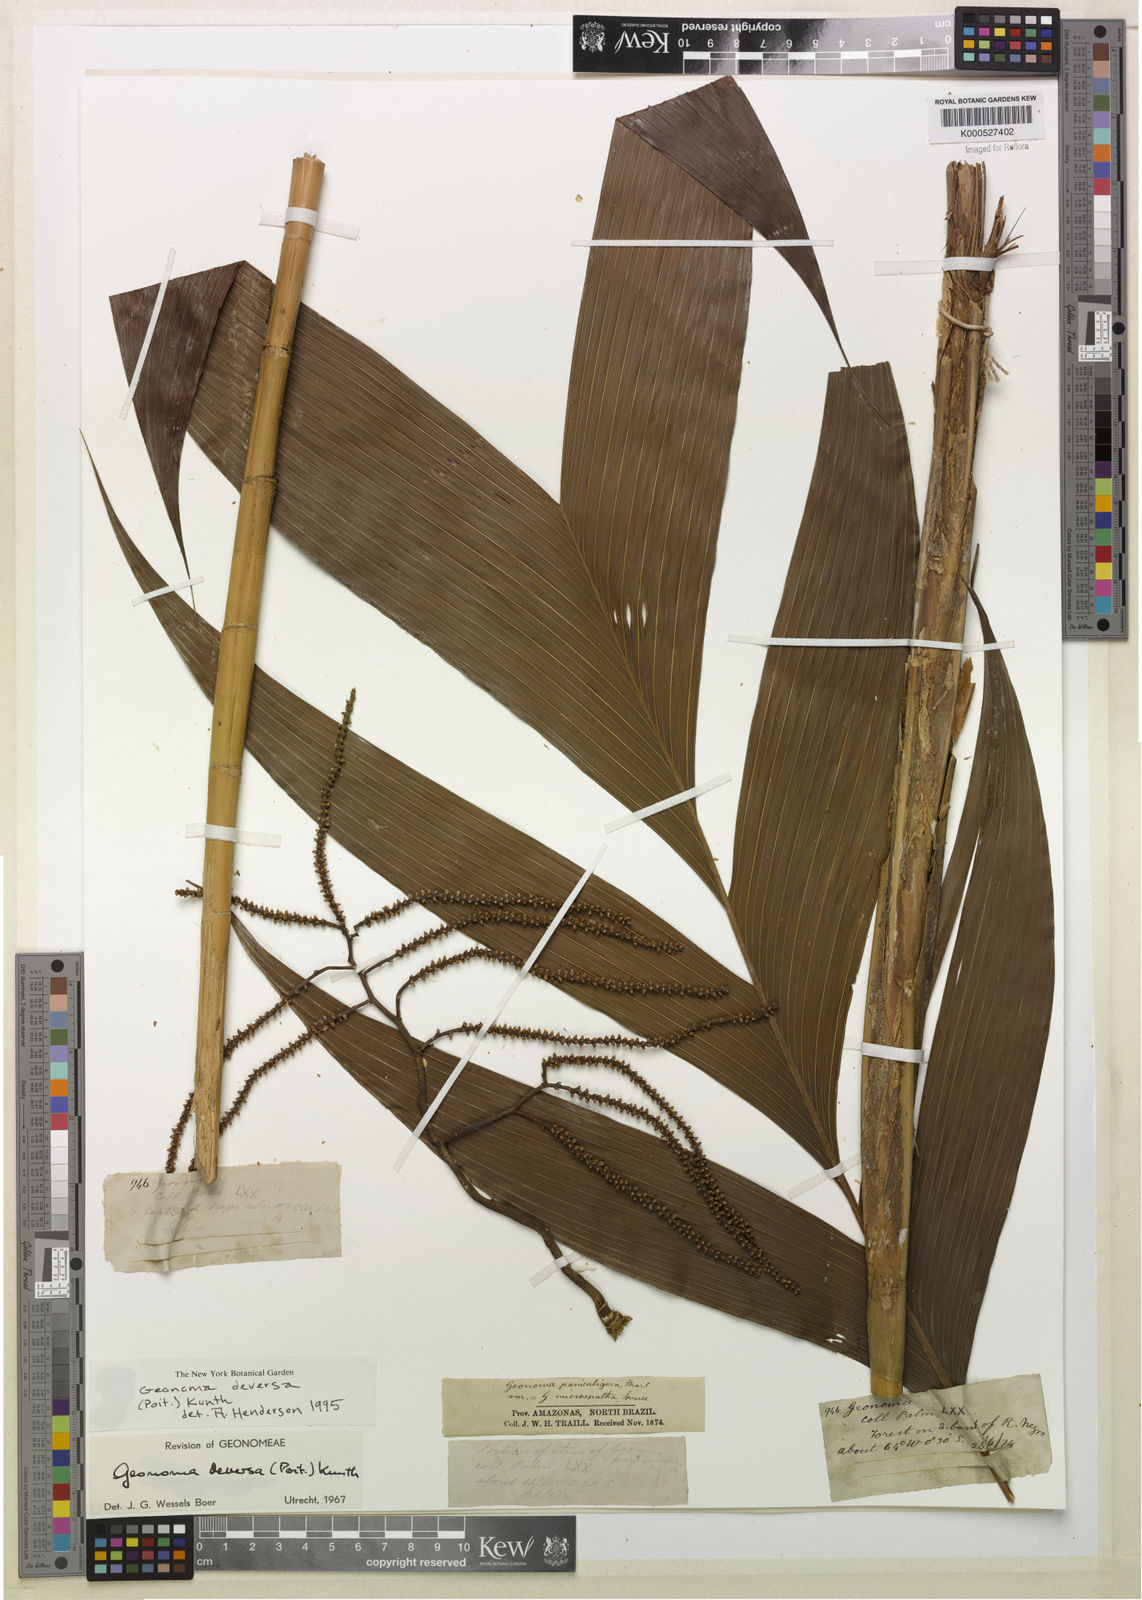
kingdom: Plantae
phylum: Tracheophyta
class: Liliopsida
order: Arecales
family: Arecaceae
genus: Geonoma
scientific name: Geonoma deversa
